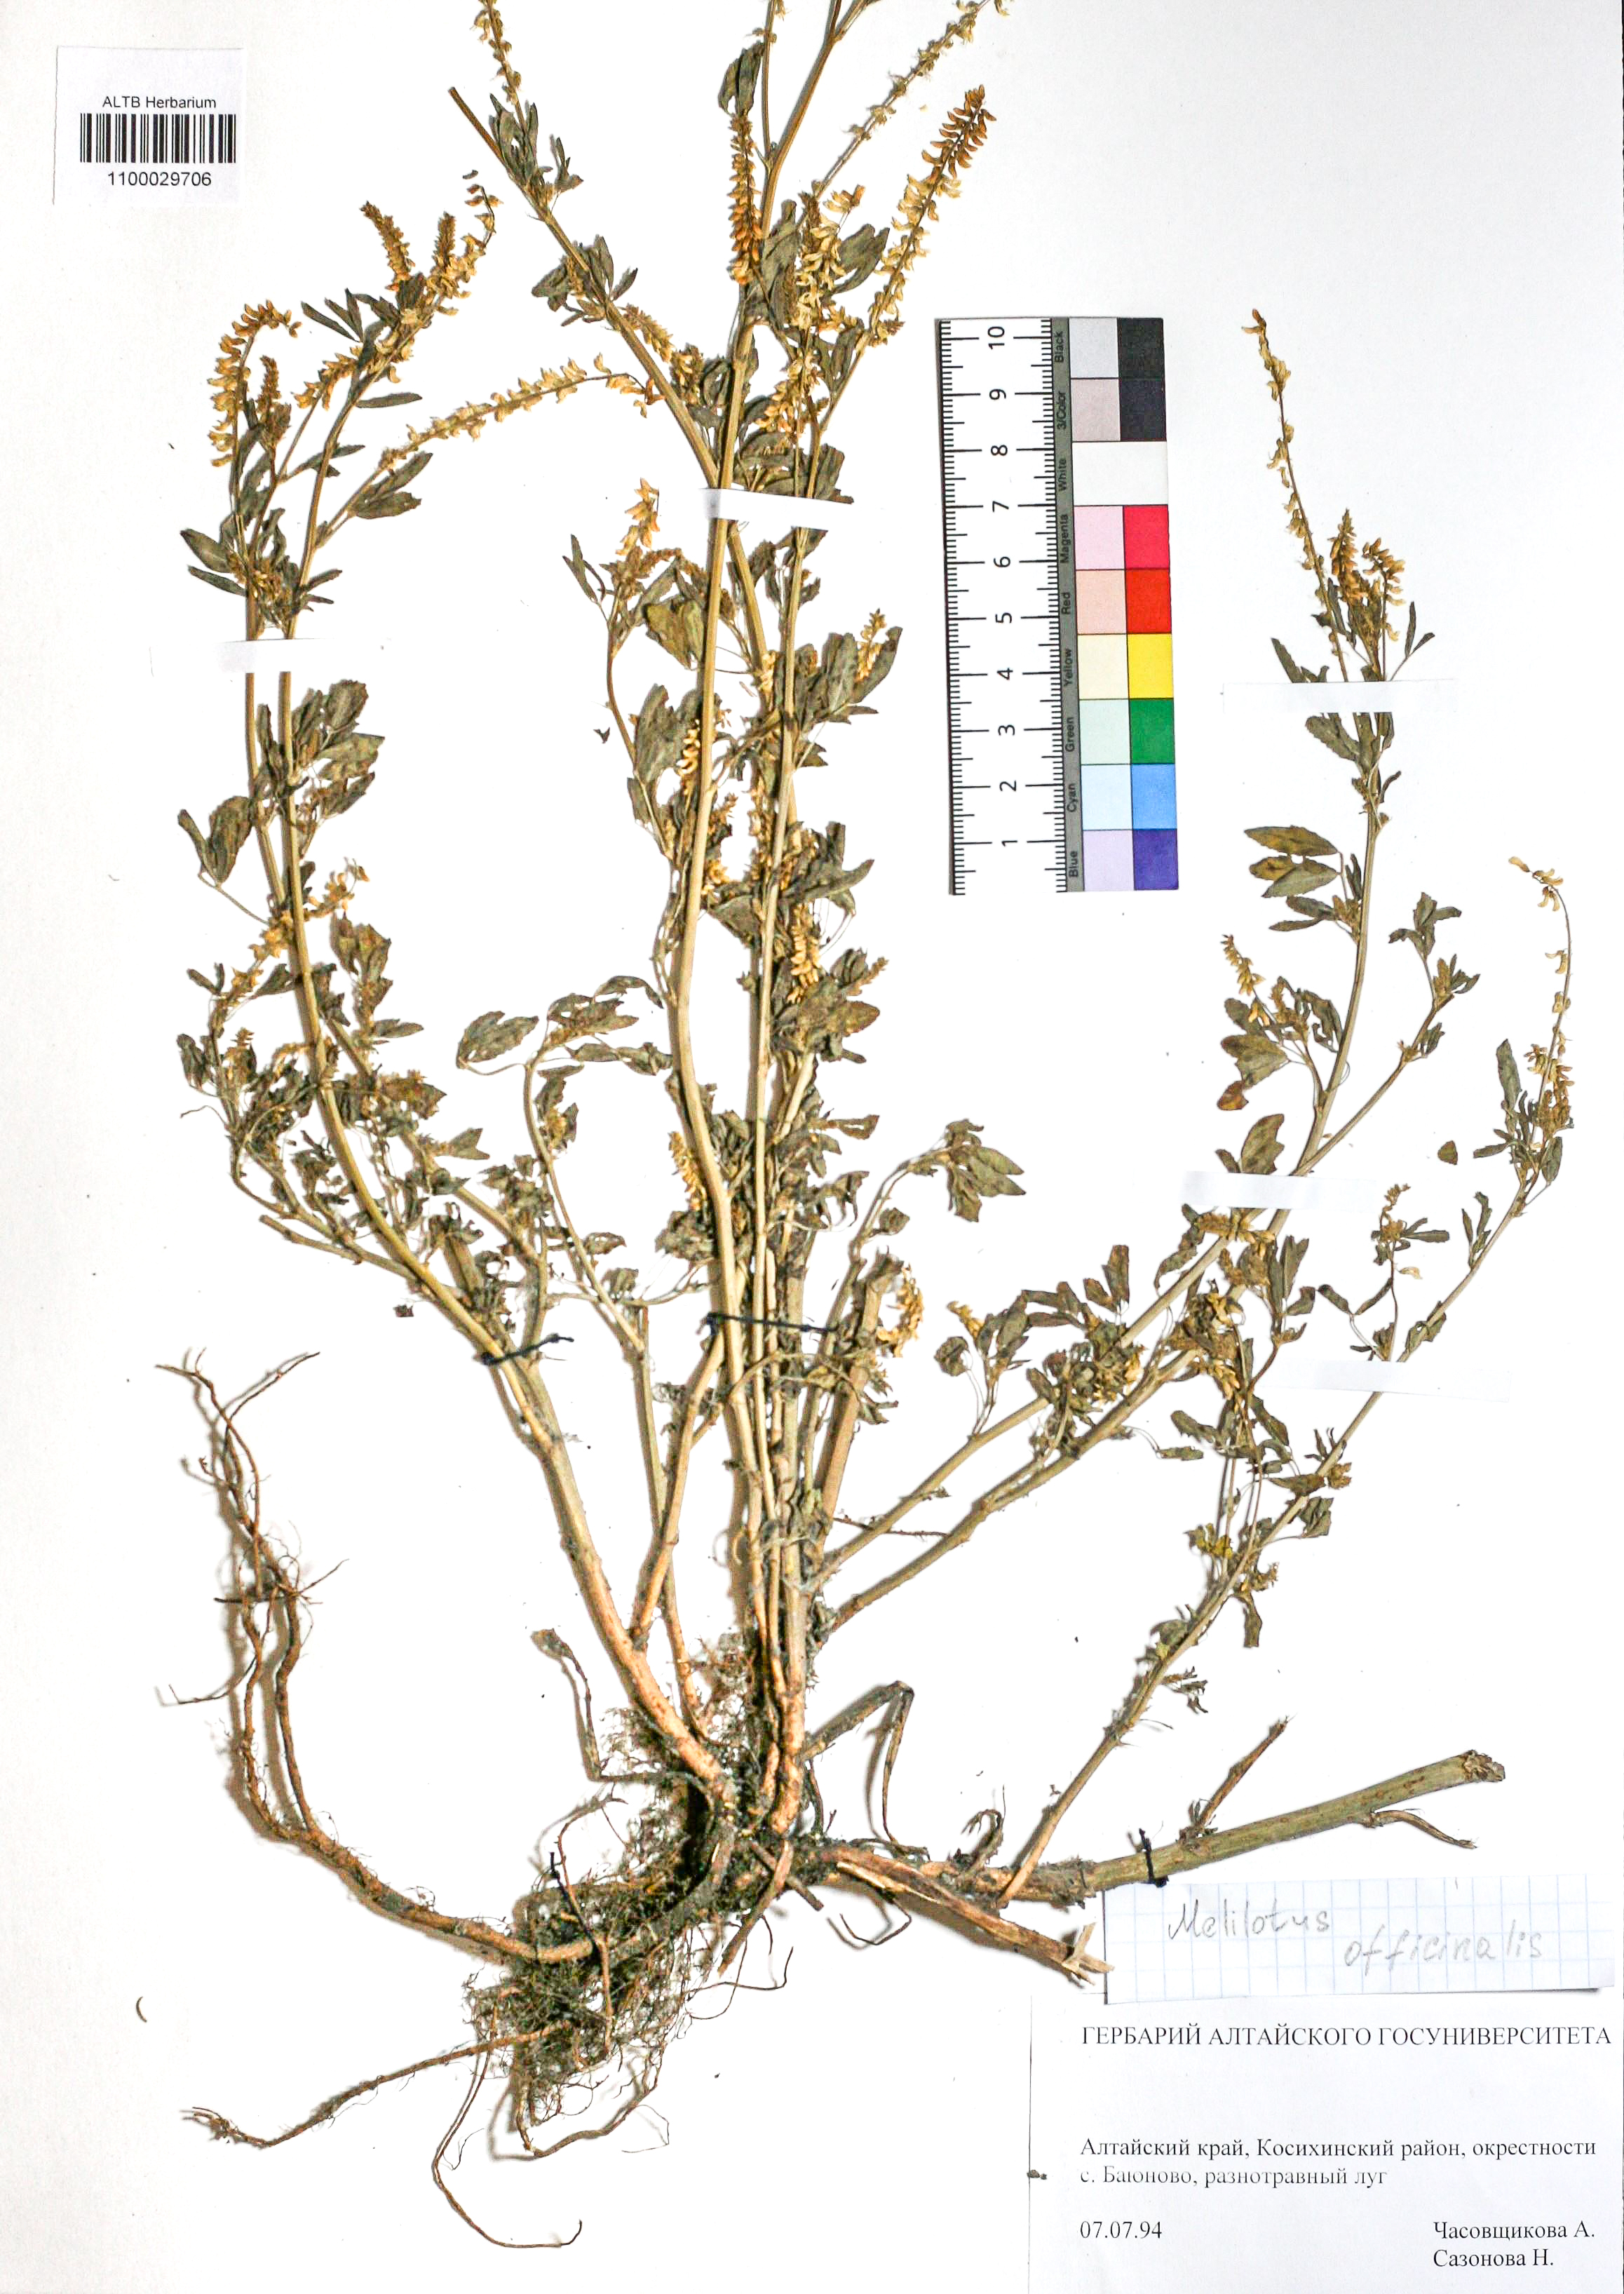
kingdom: Plantae
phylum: Tracheophyta
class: Magnoliopsida
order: Fabales
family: Fabaceae
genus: Melilotus
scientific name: Melilotus officinalis
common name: Sweetclover
